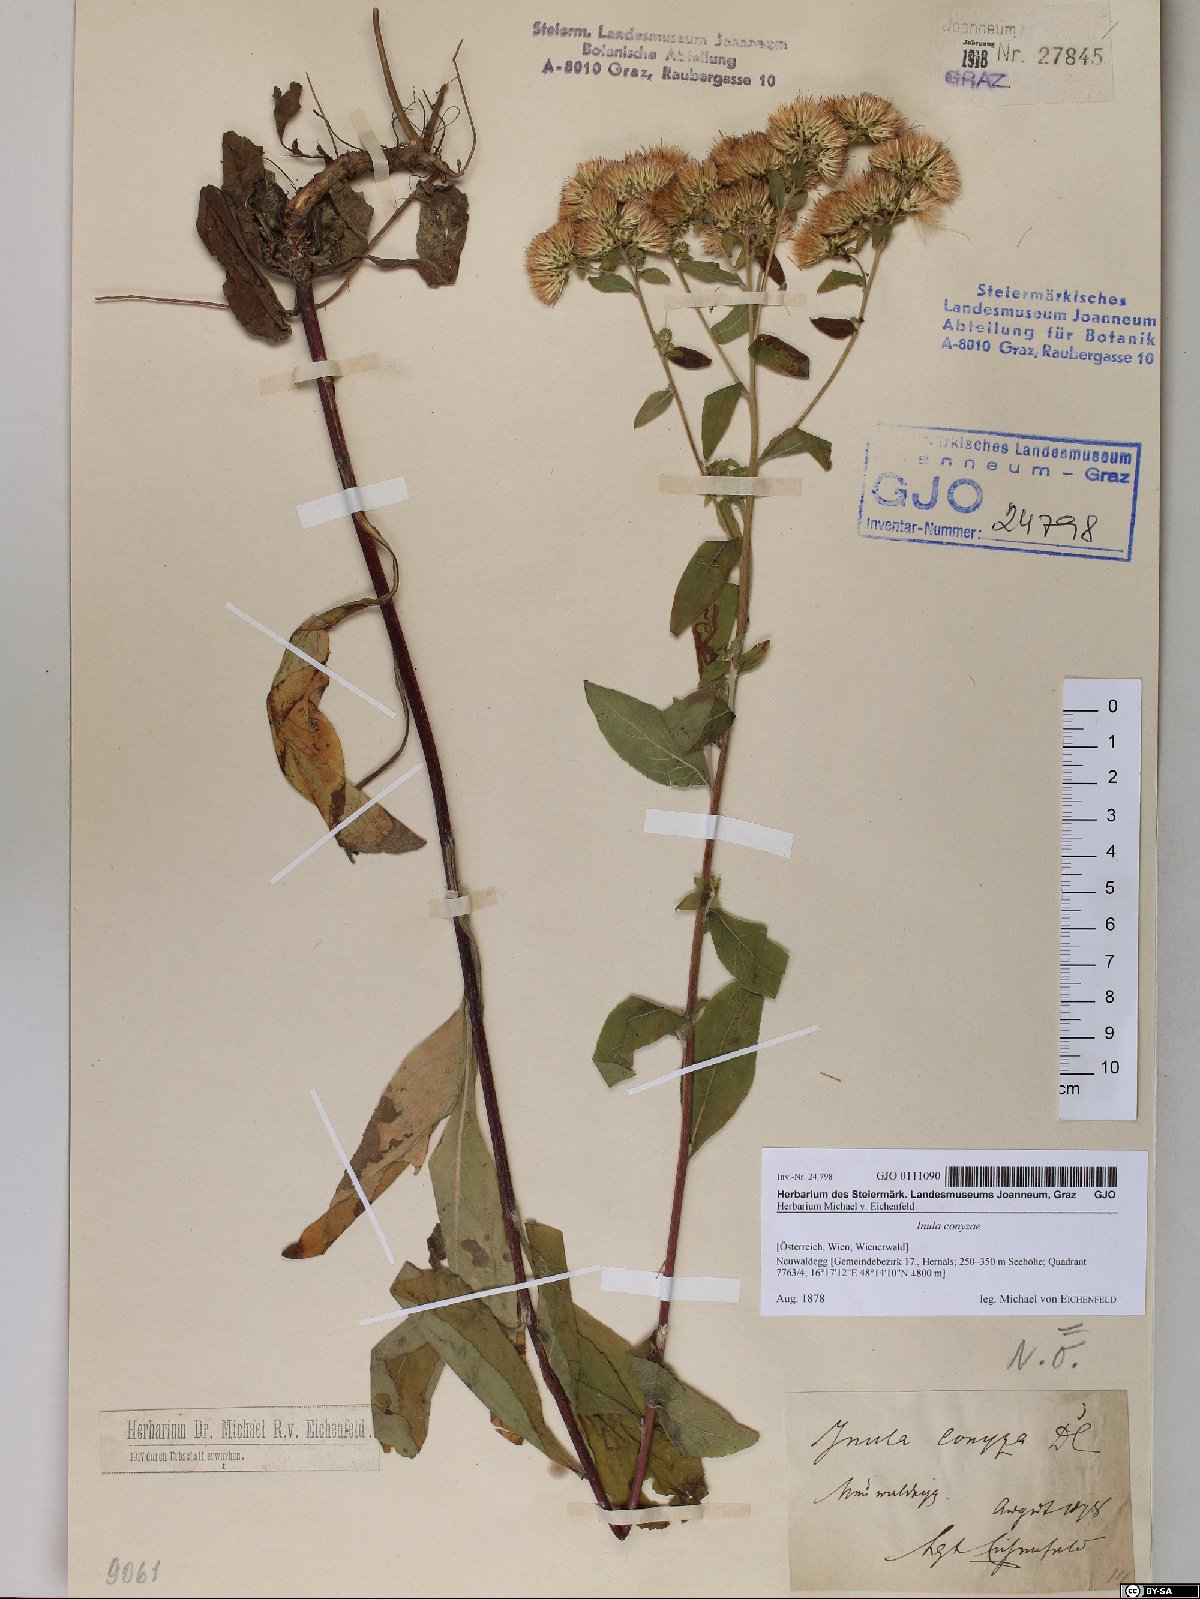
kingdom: Plantae
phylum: Tracheophyta
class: Magnoliopsida
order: Asterales
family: Asteraceae
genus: Pentanema
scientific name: Pentanema squarrosum
